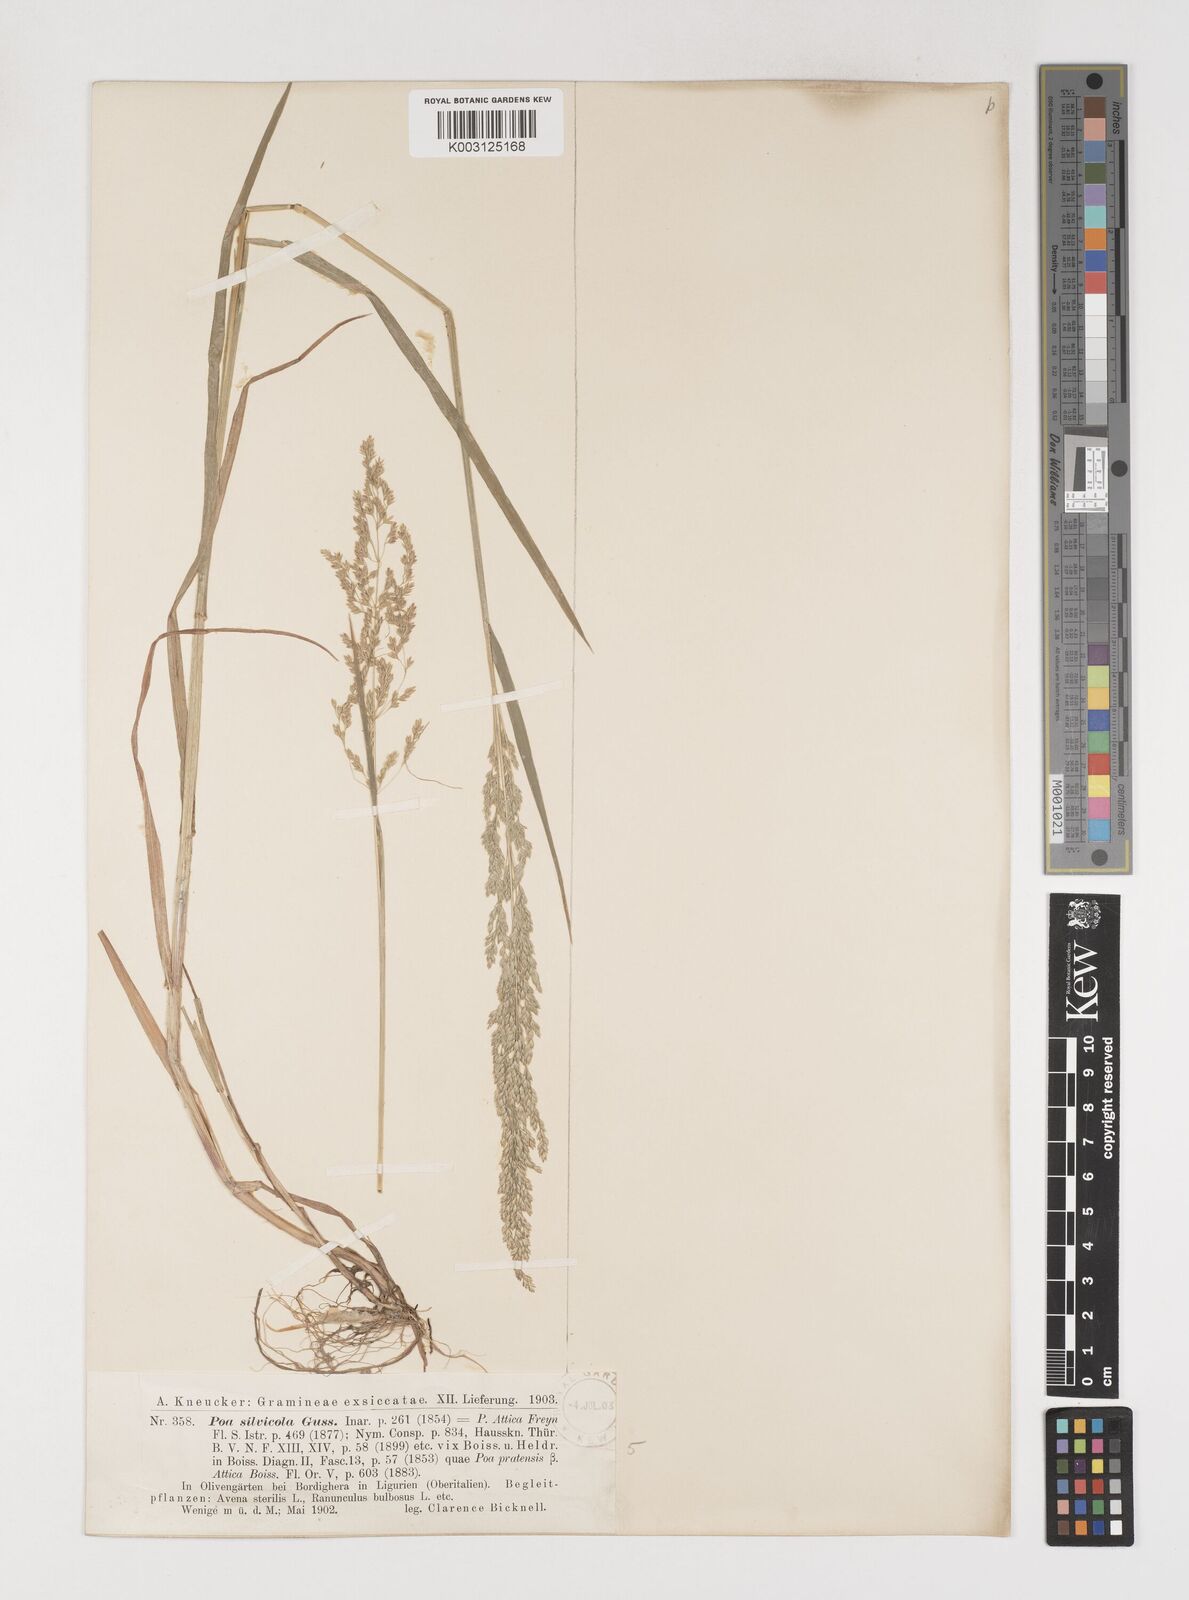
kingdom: Plantae
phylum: Tracheophyta
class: Liliopsida
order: Poales
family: Poaceae
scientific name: Poaceae
